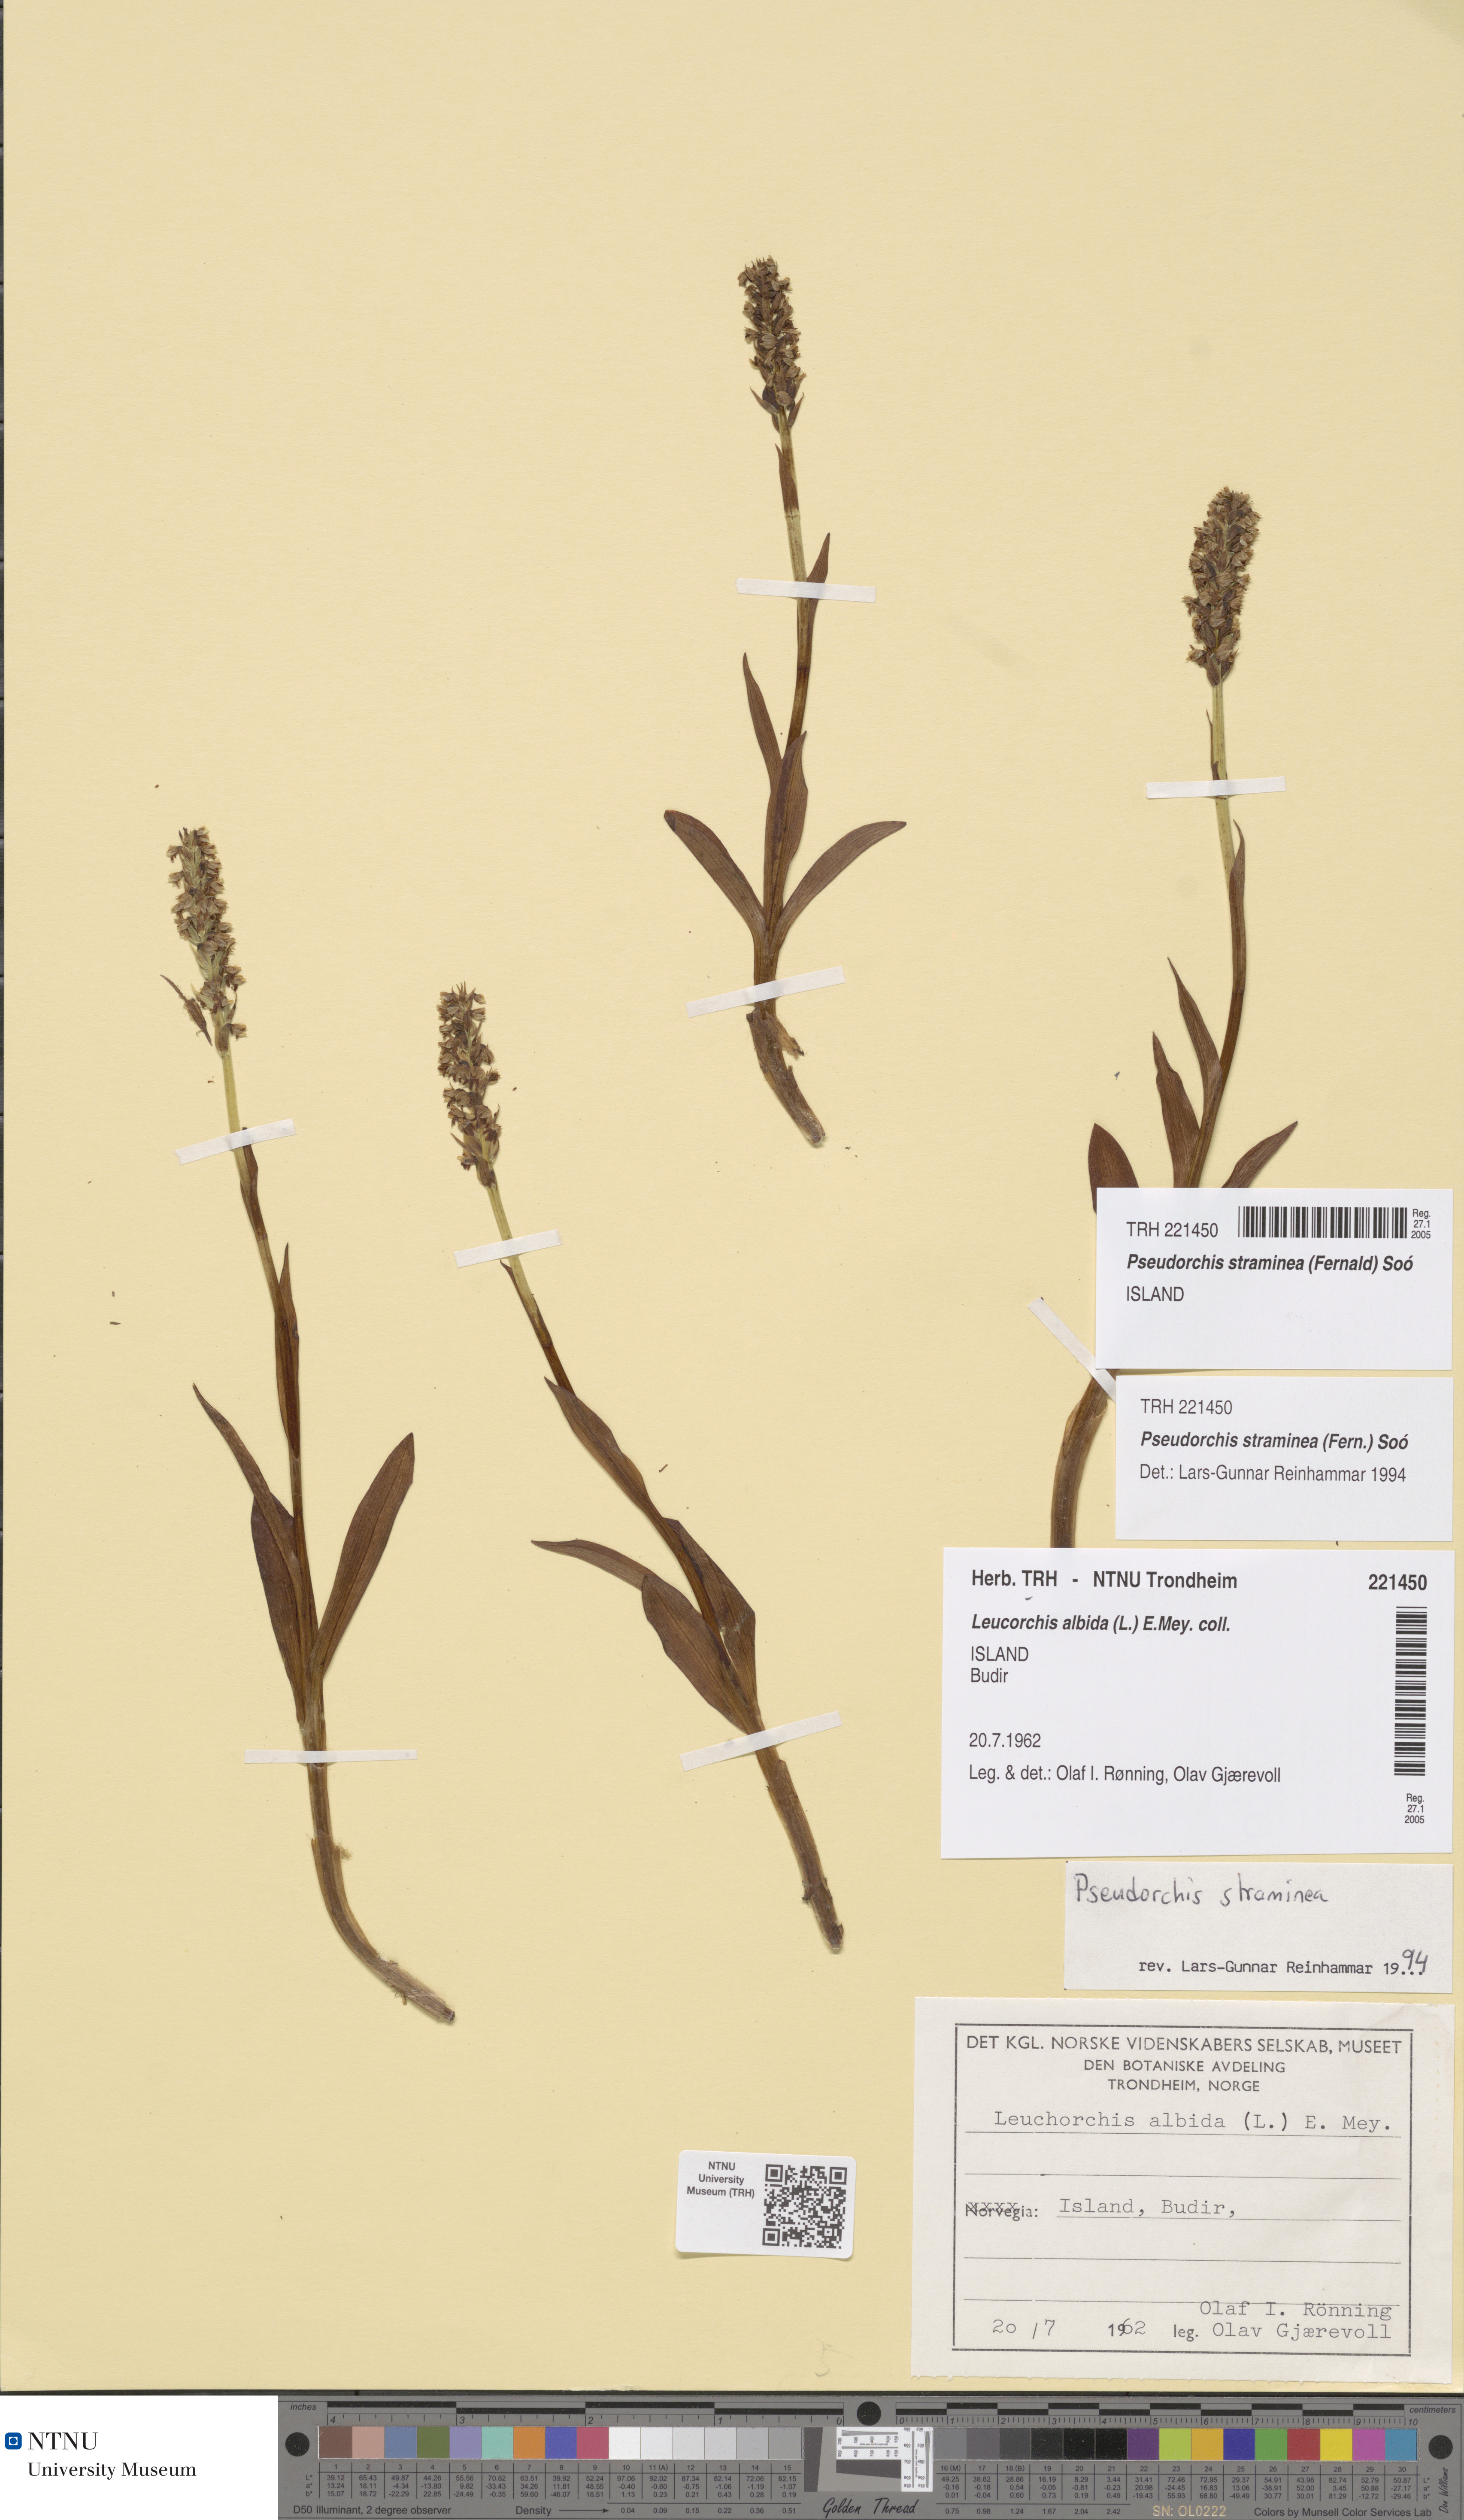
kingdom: Plantae
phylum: Tracheophyta
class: Liliopsida
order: Asparagales
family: Orchidaceae
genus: Pseudorchis
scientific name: Pseudorchis straminea
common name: Vanilla-scented bog orchid
